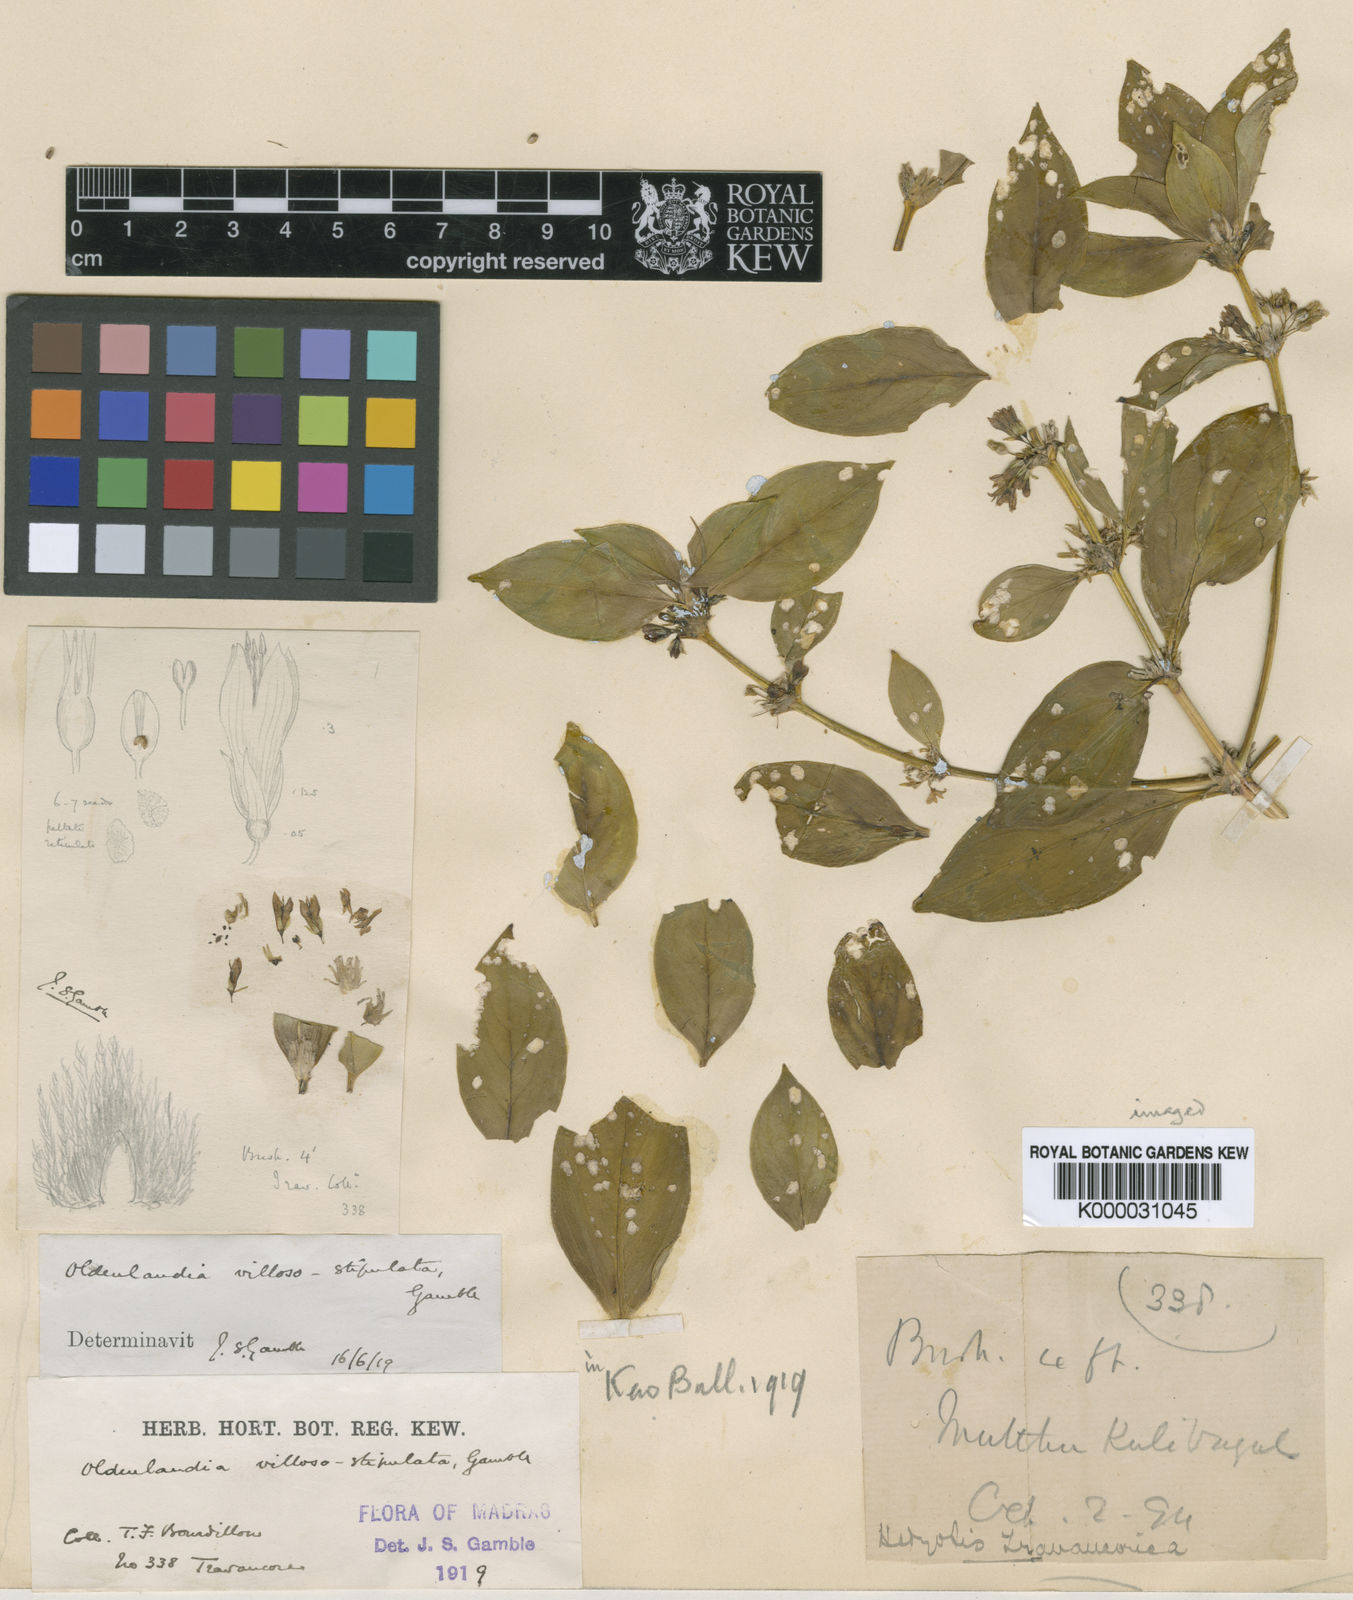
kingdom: Plantae
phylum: Tracheophyta
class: Magnoliopsida
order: Gentianales
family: Rubiaceae
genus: Hedyotis
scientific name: Hedyotis
